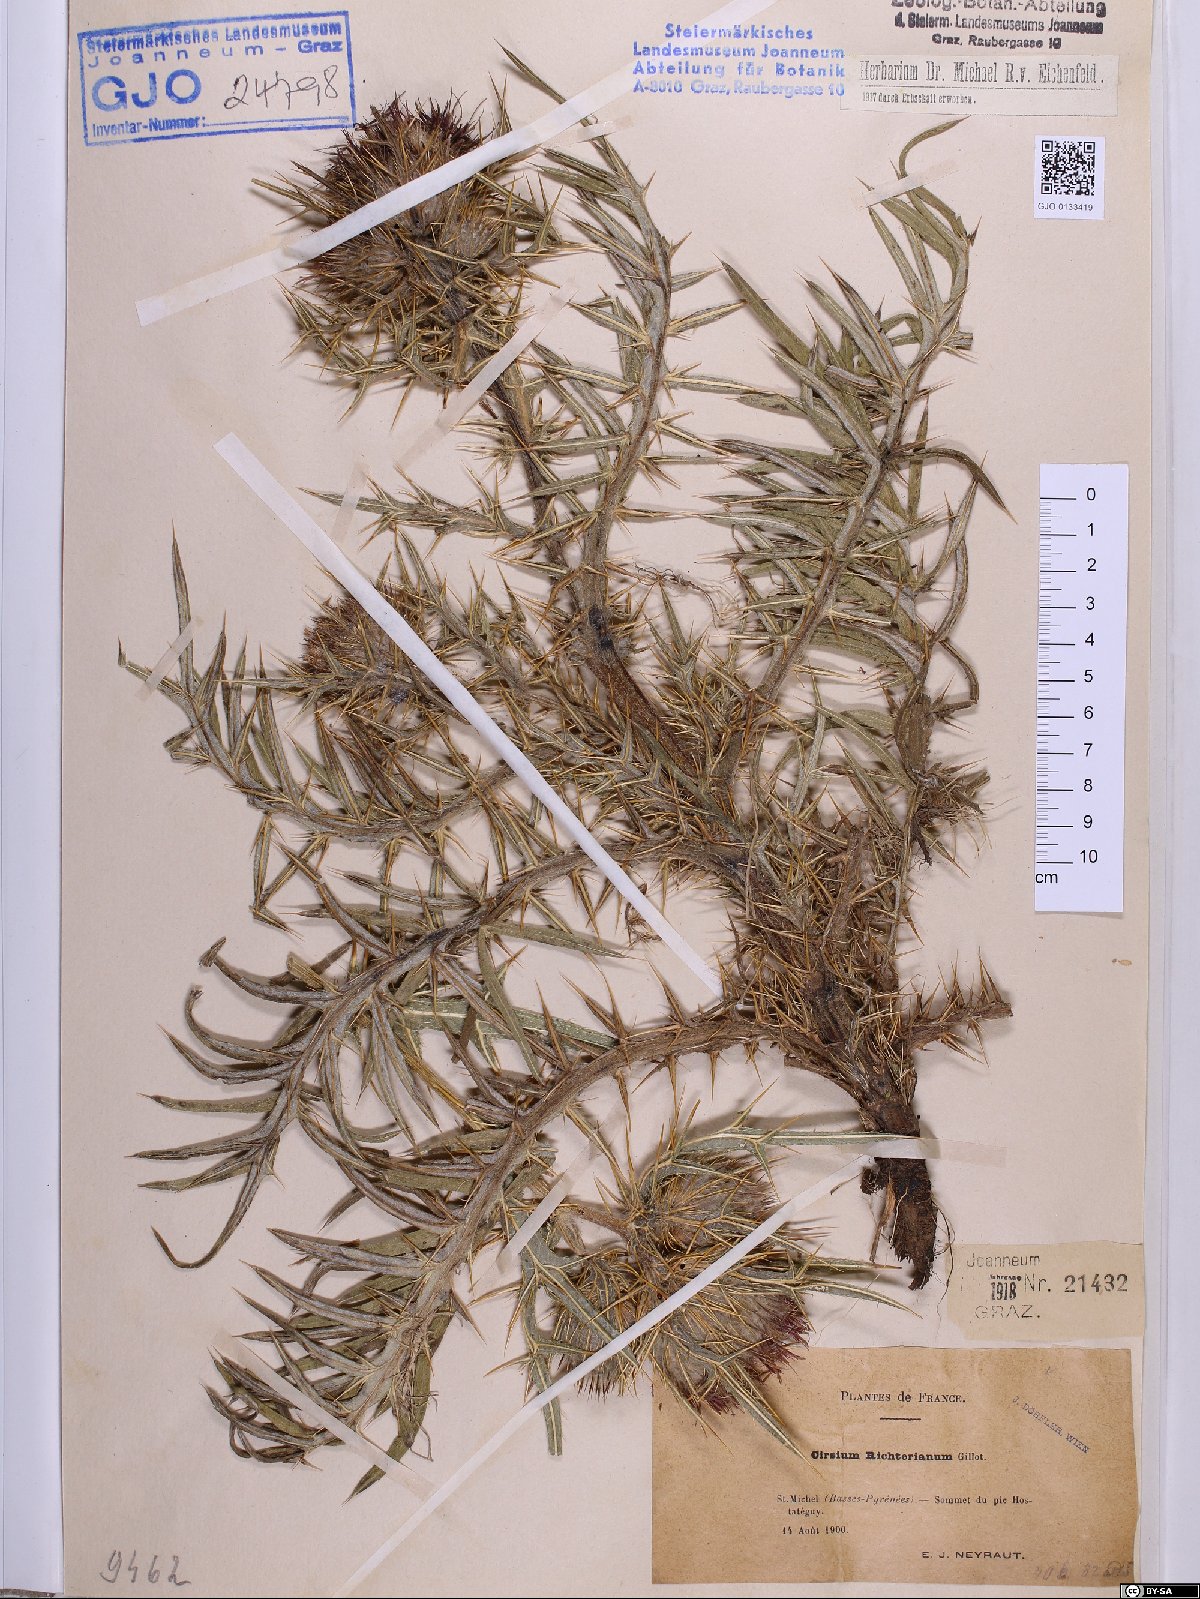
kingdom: Plantae
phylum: Tracheophyta
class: Magnoliopsida
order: Asterales
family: Asteraceae
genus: Lophiolepis
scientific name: Lophiolepis richteriana
